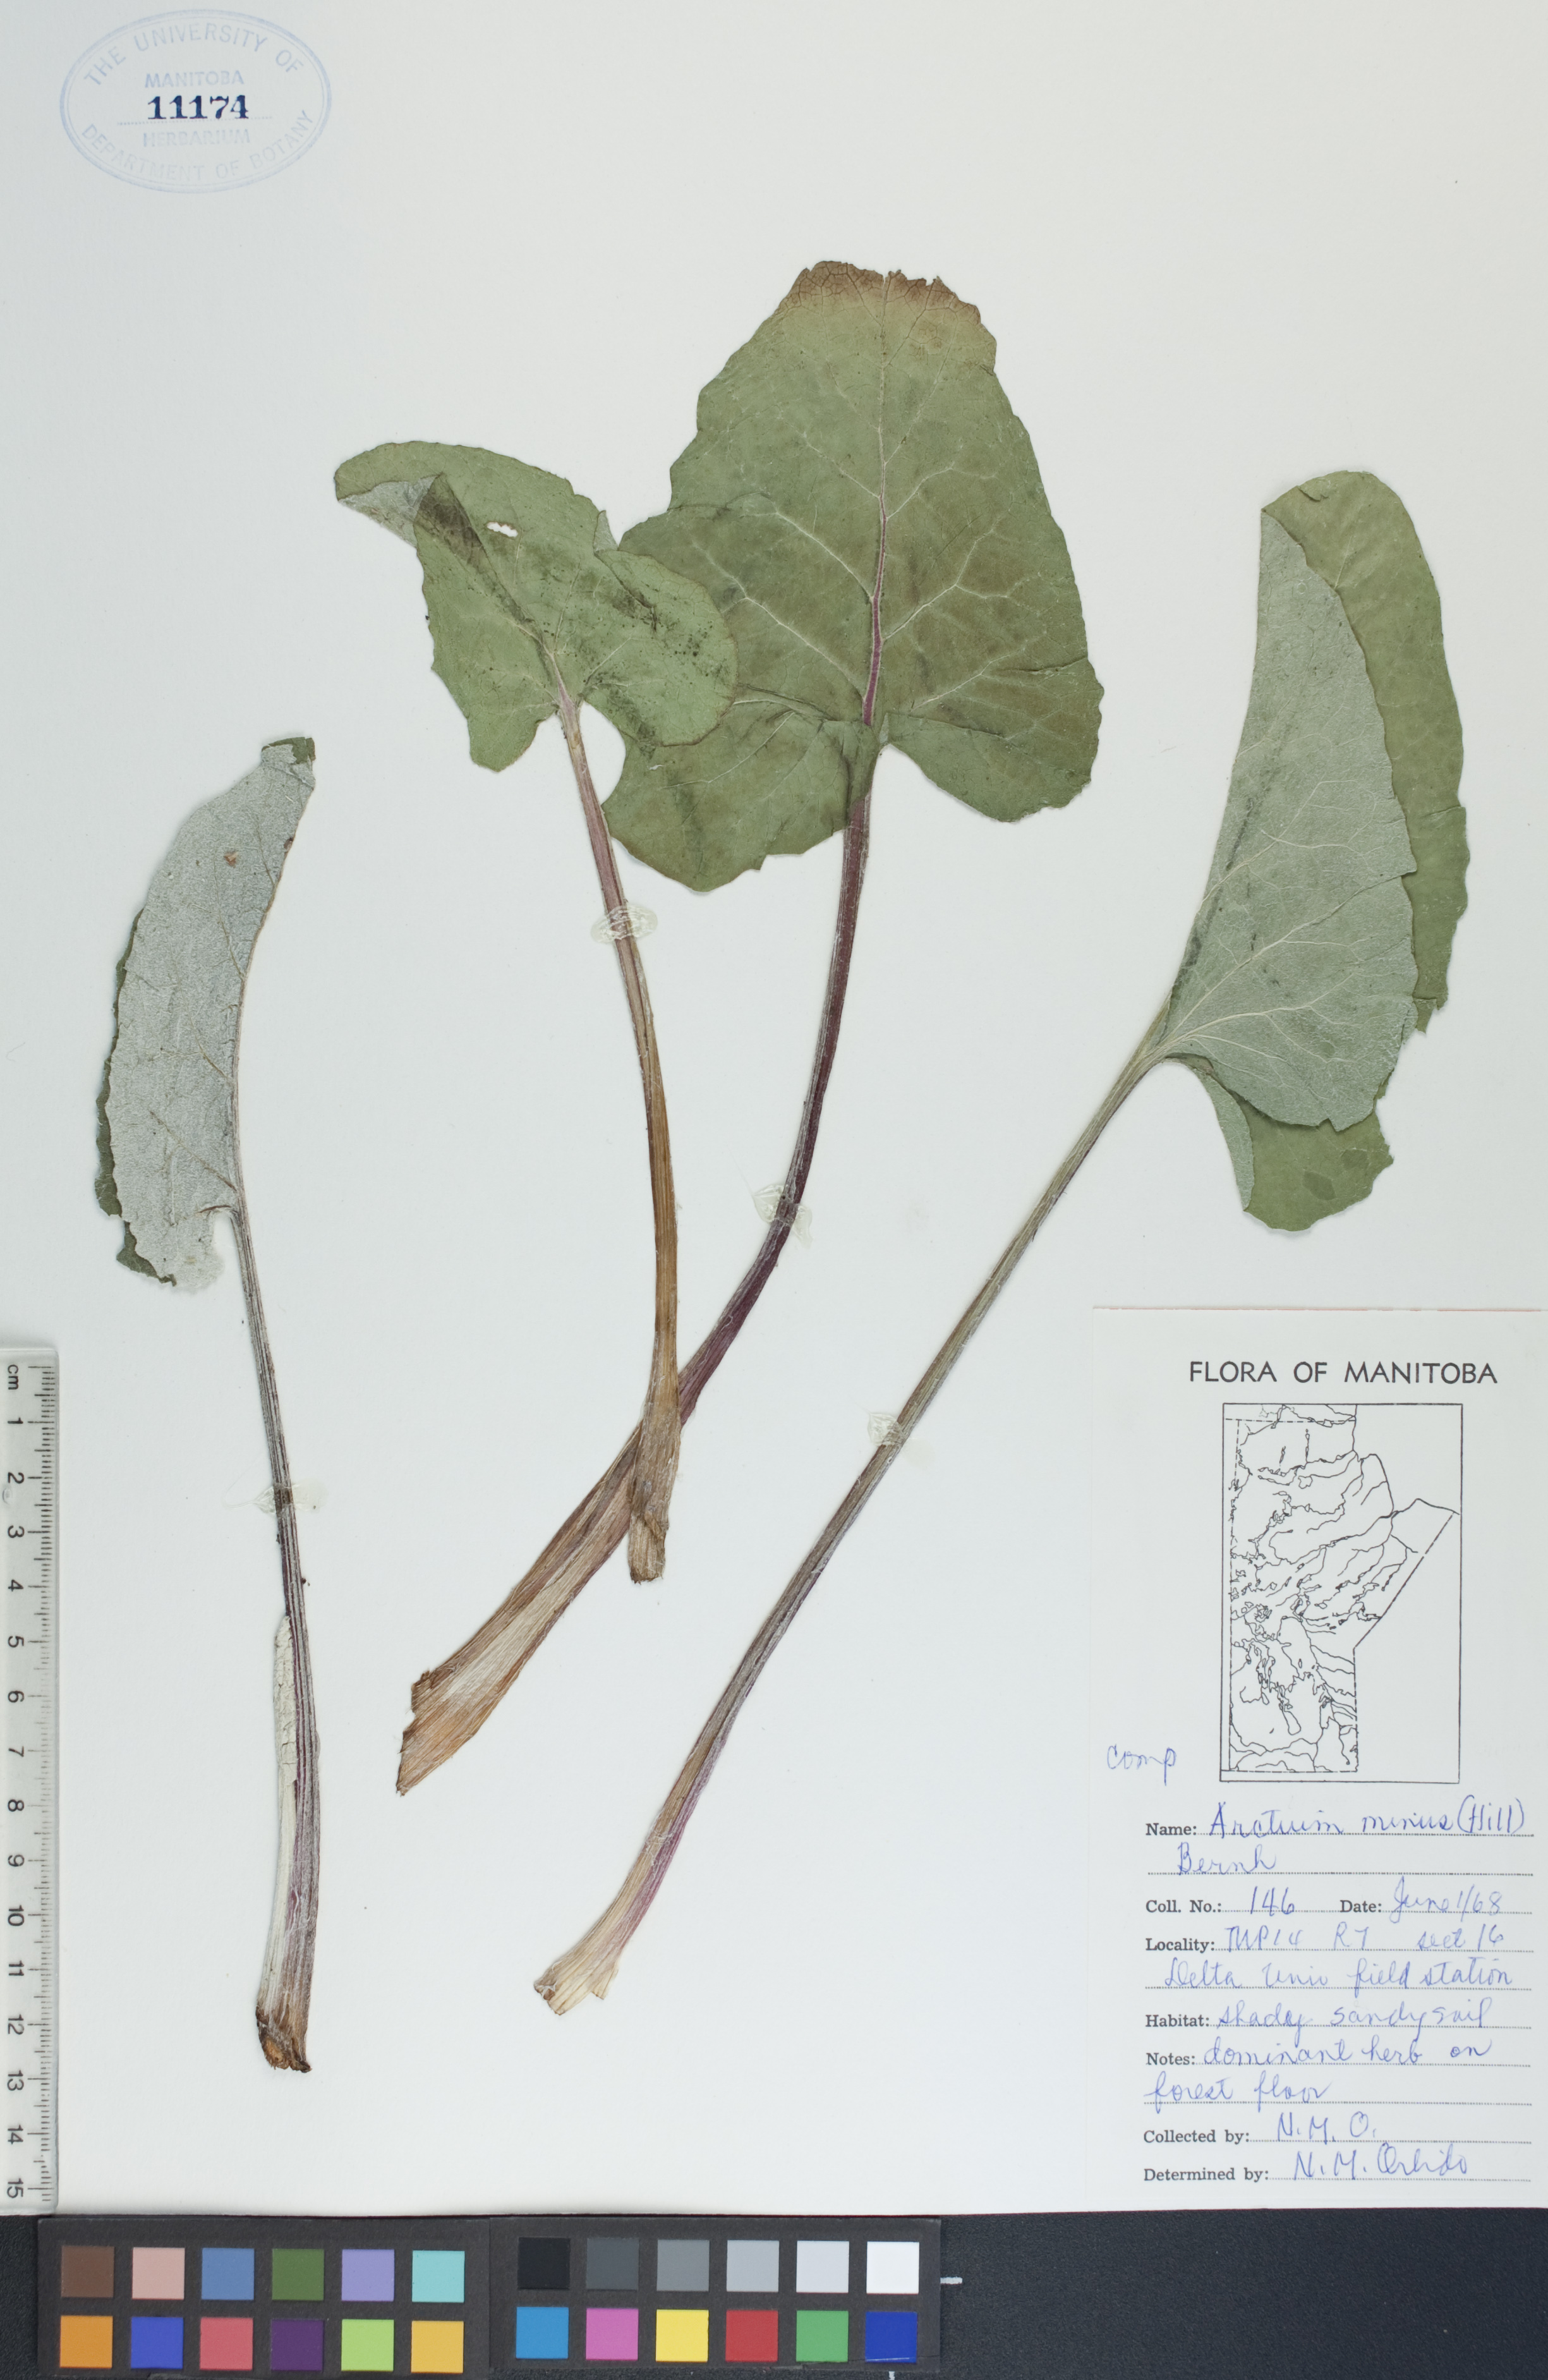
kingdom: Plantae
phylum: Tracheophyta
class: Magnoliopsida
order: Asterales
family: Asteraceae
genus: Arctium
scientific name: Arctium minus
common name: Lesser burdock
